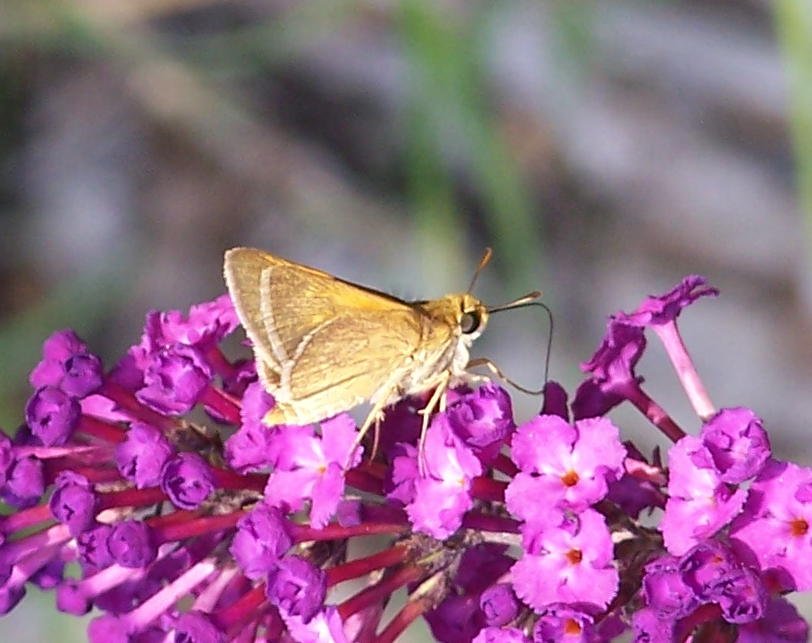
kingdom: Animalia
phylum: Arthropoda
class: Insecta
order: Lepidoptera
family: Hesperiidae
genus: Polites
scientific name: Polites themistocles
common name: Tawny-edged Skipper
